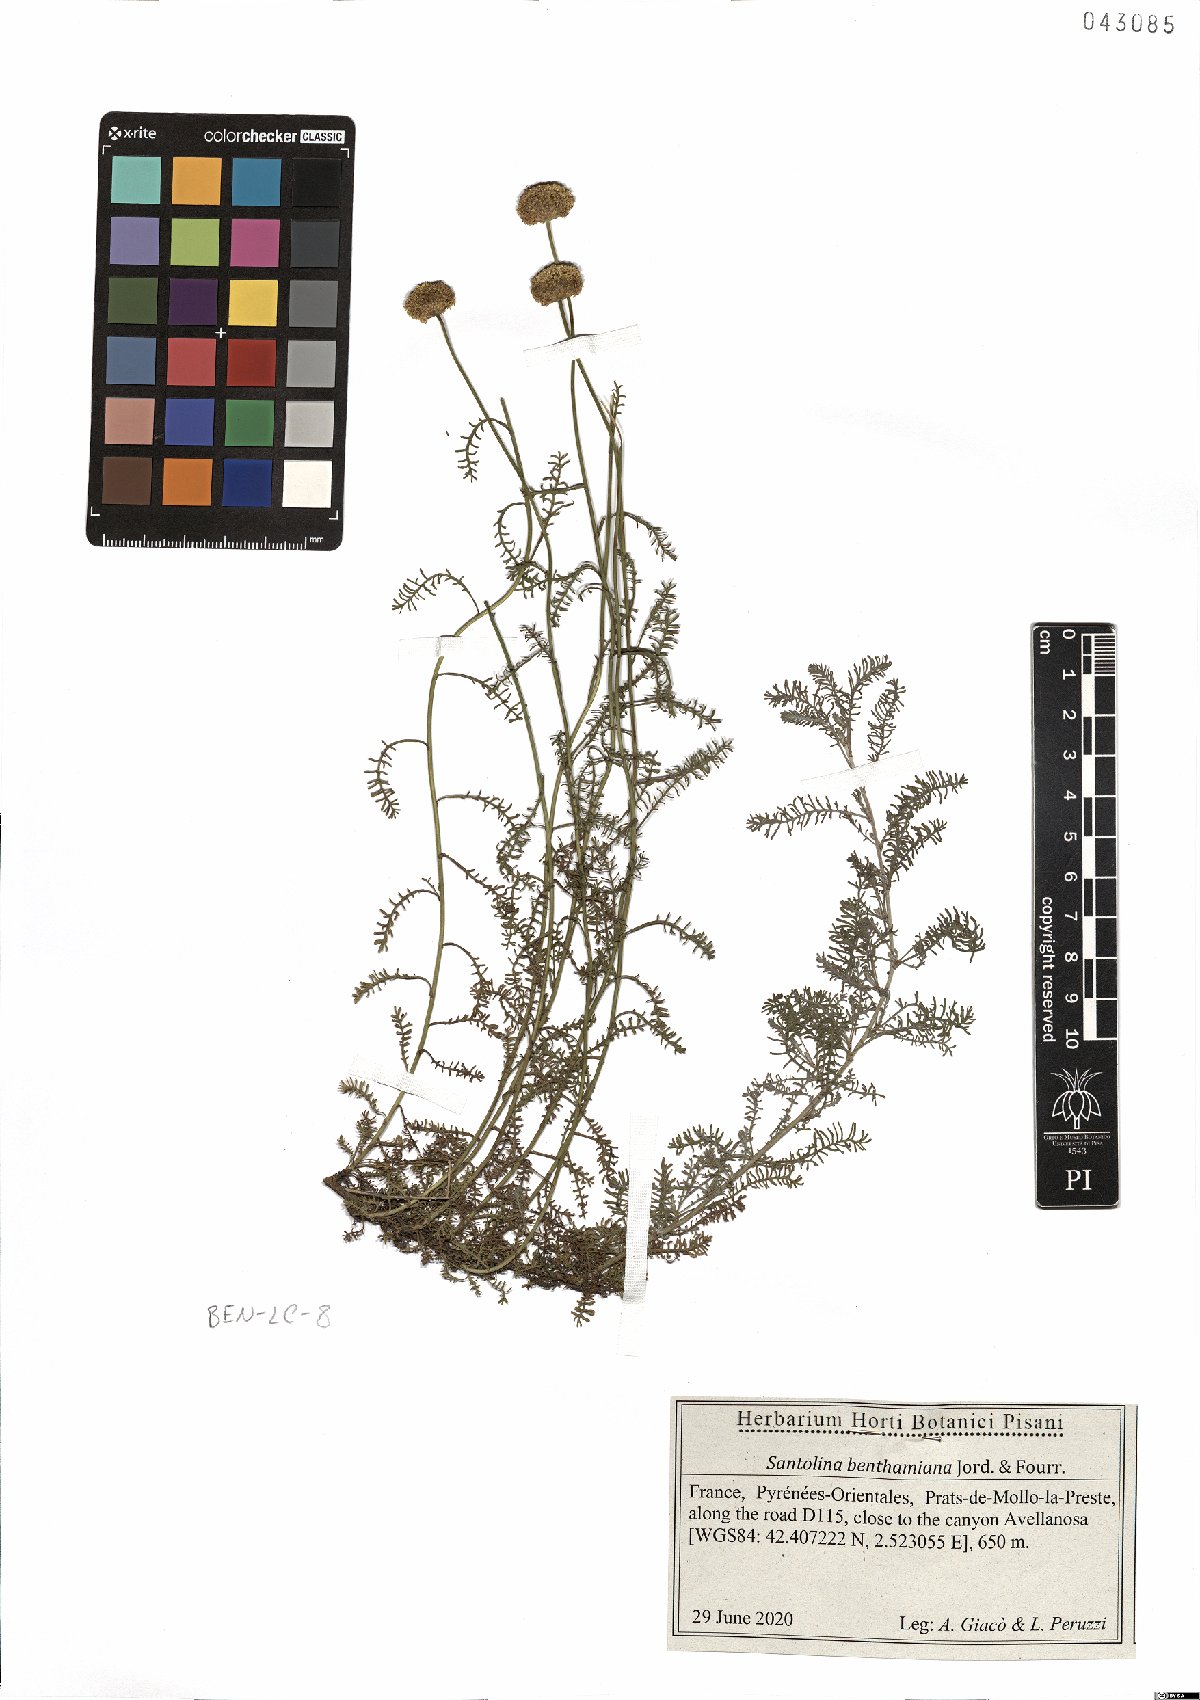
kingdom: Plantae
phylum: Tracheophyta
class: Magnoliopsida
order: Asterales
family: Asteraceae
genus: Santolina
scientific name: Santolina benthamiana
